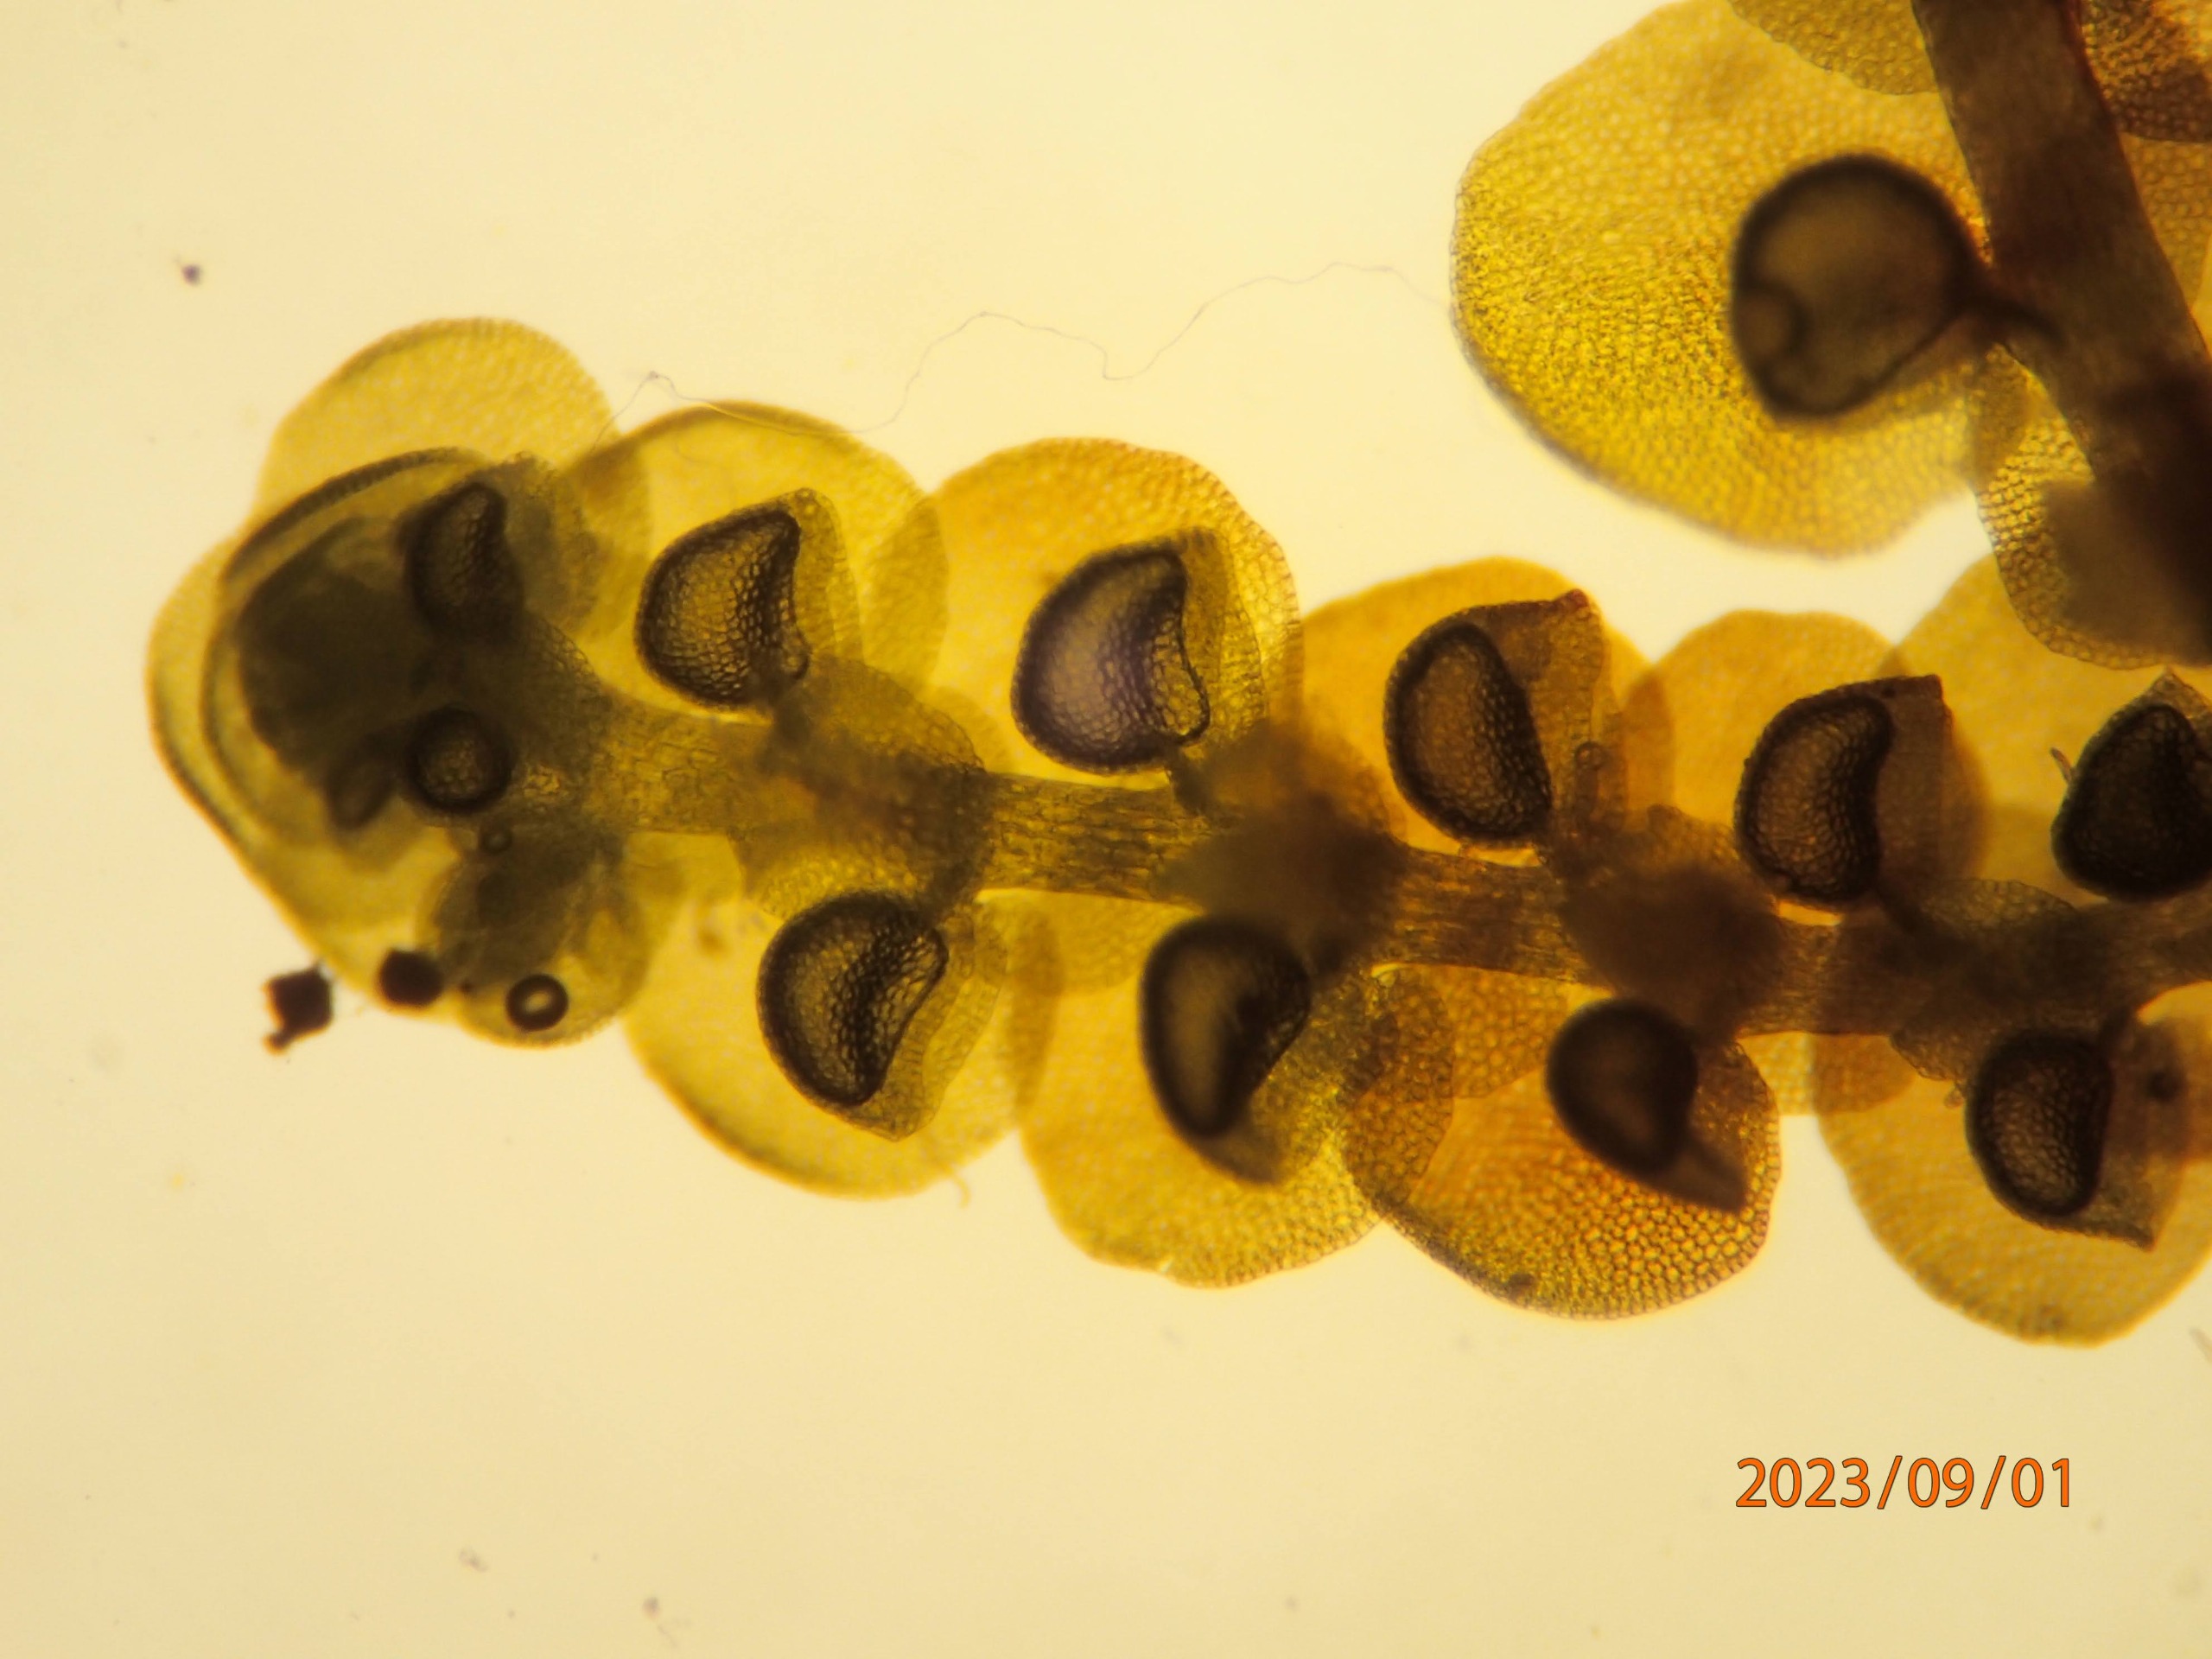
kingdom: Plantae
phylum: Marchantiophyta
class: Jungermanniopsida
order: Porellales
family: Frullaniaceae
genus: Frullania
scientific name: Frullania dilatata
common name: Mat bronzemos
